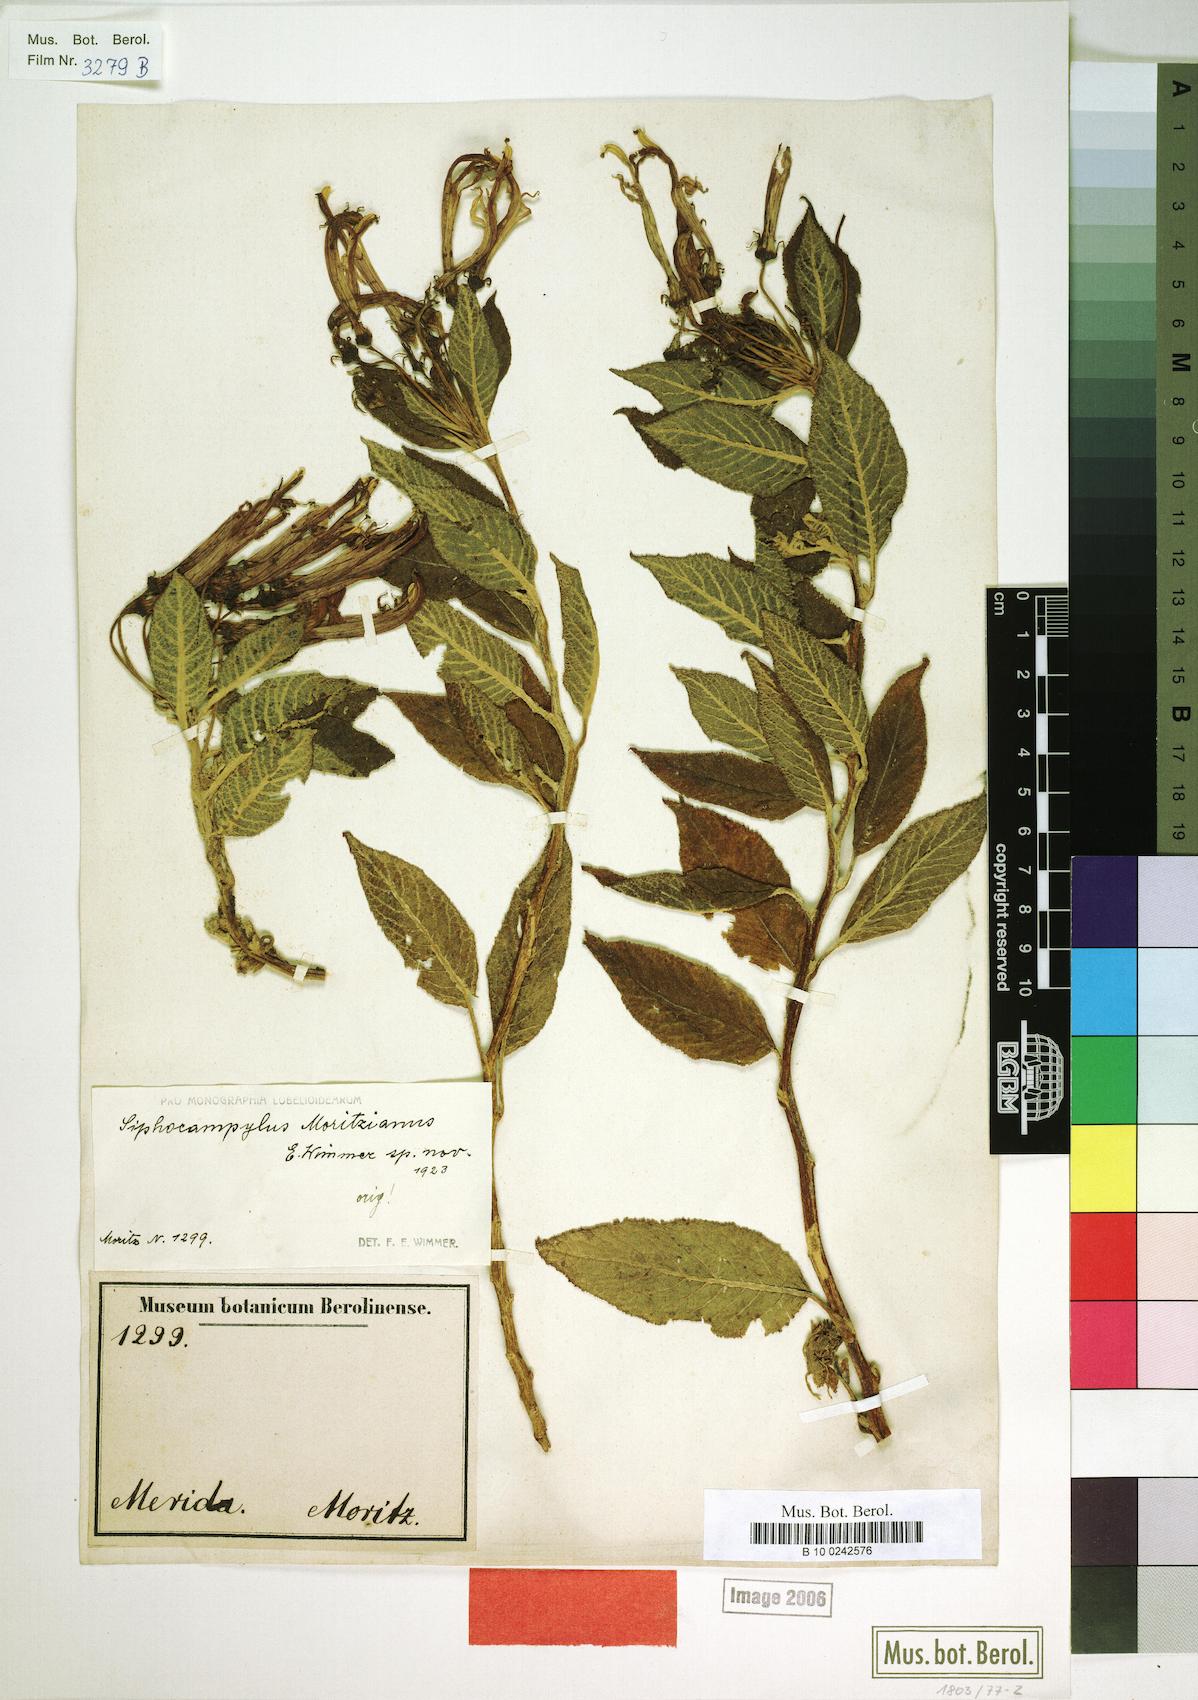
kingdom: Plantae
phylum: Tracheophyta
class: Magnoliopsida
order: Asterales
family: Campanulaceae
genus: Siphocampylus
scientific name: Siphocampylus moritzianus
